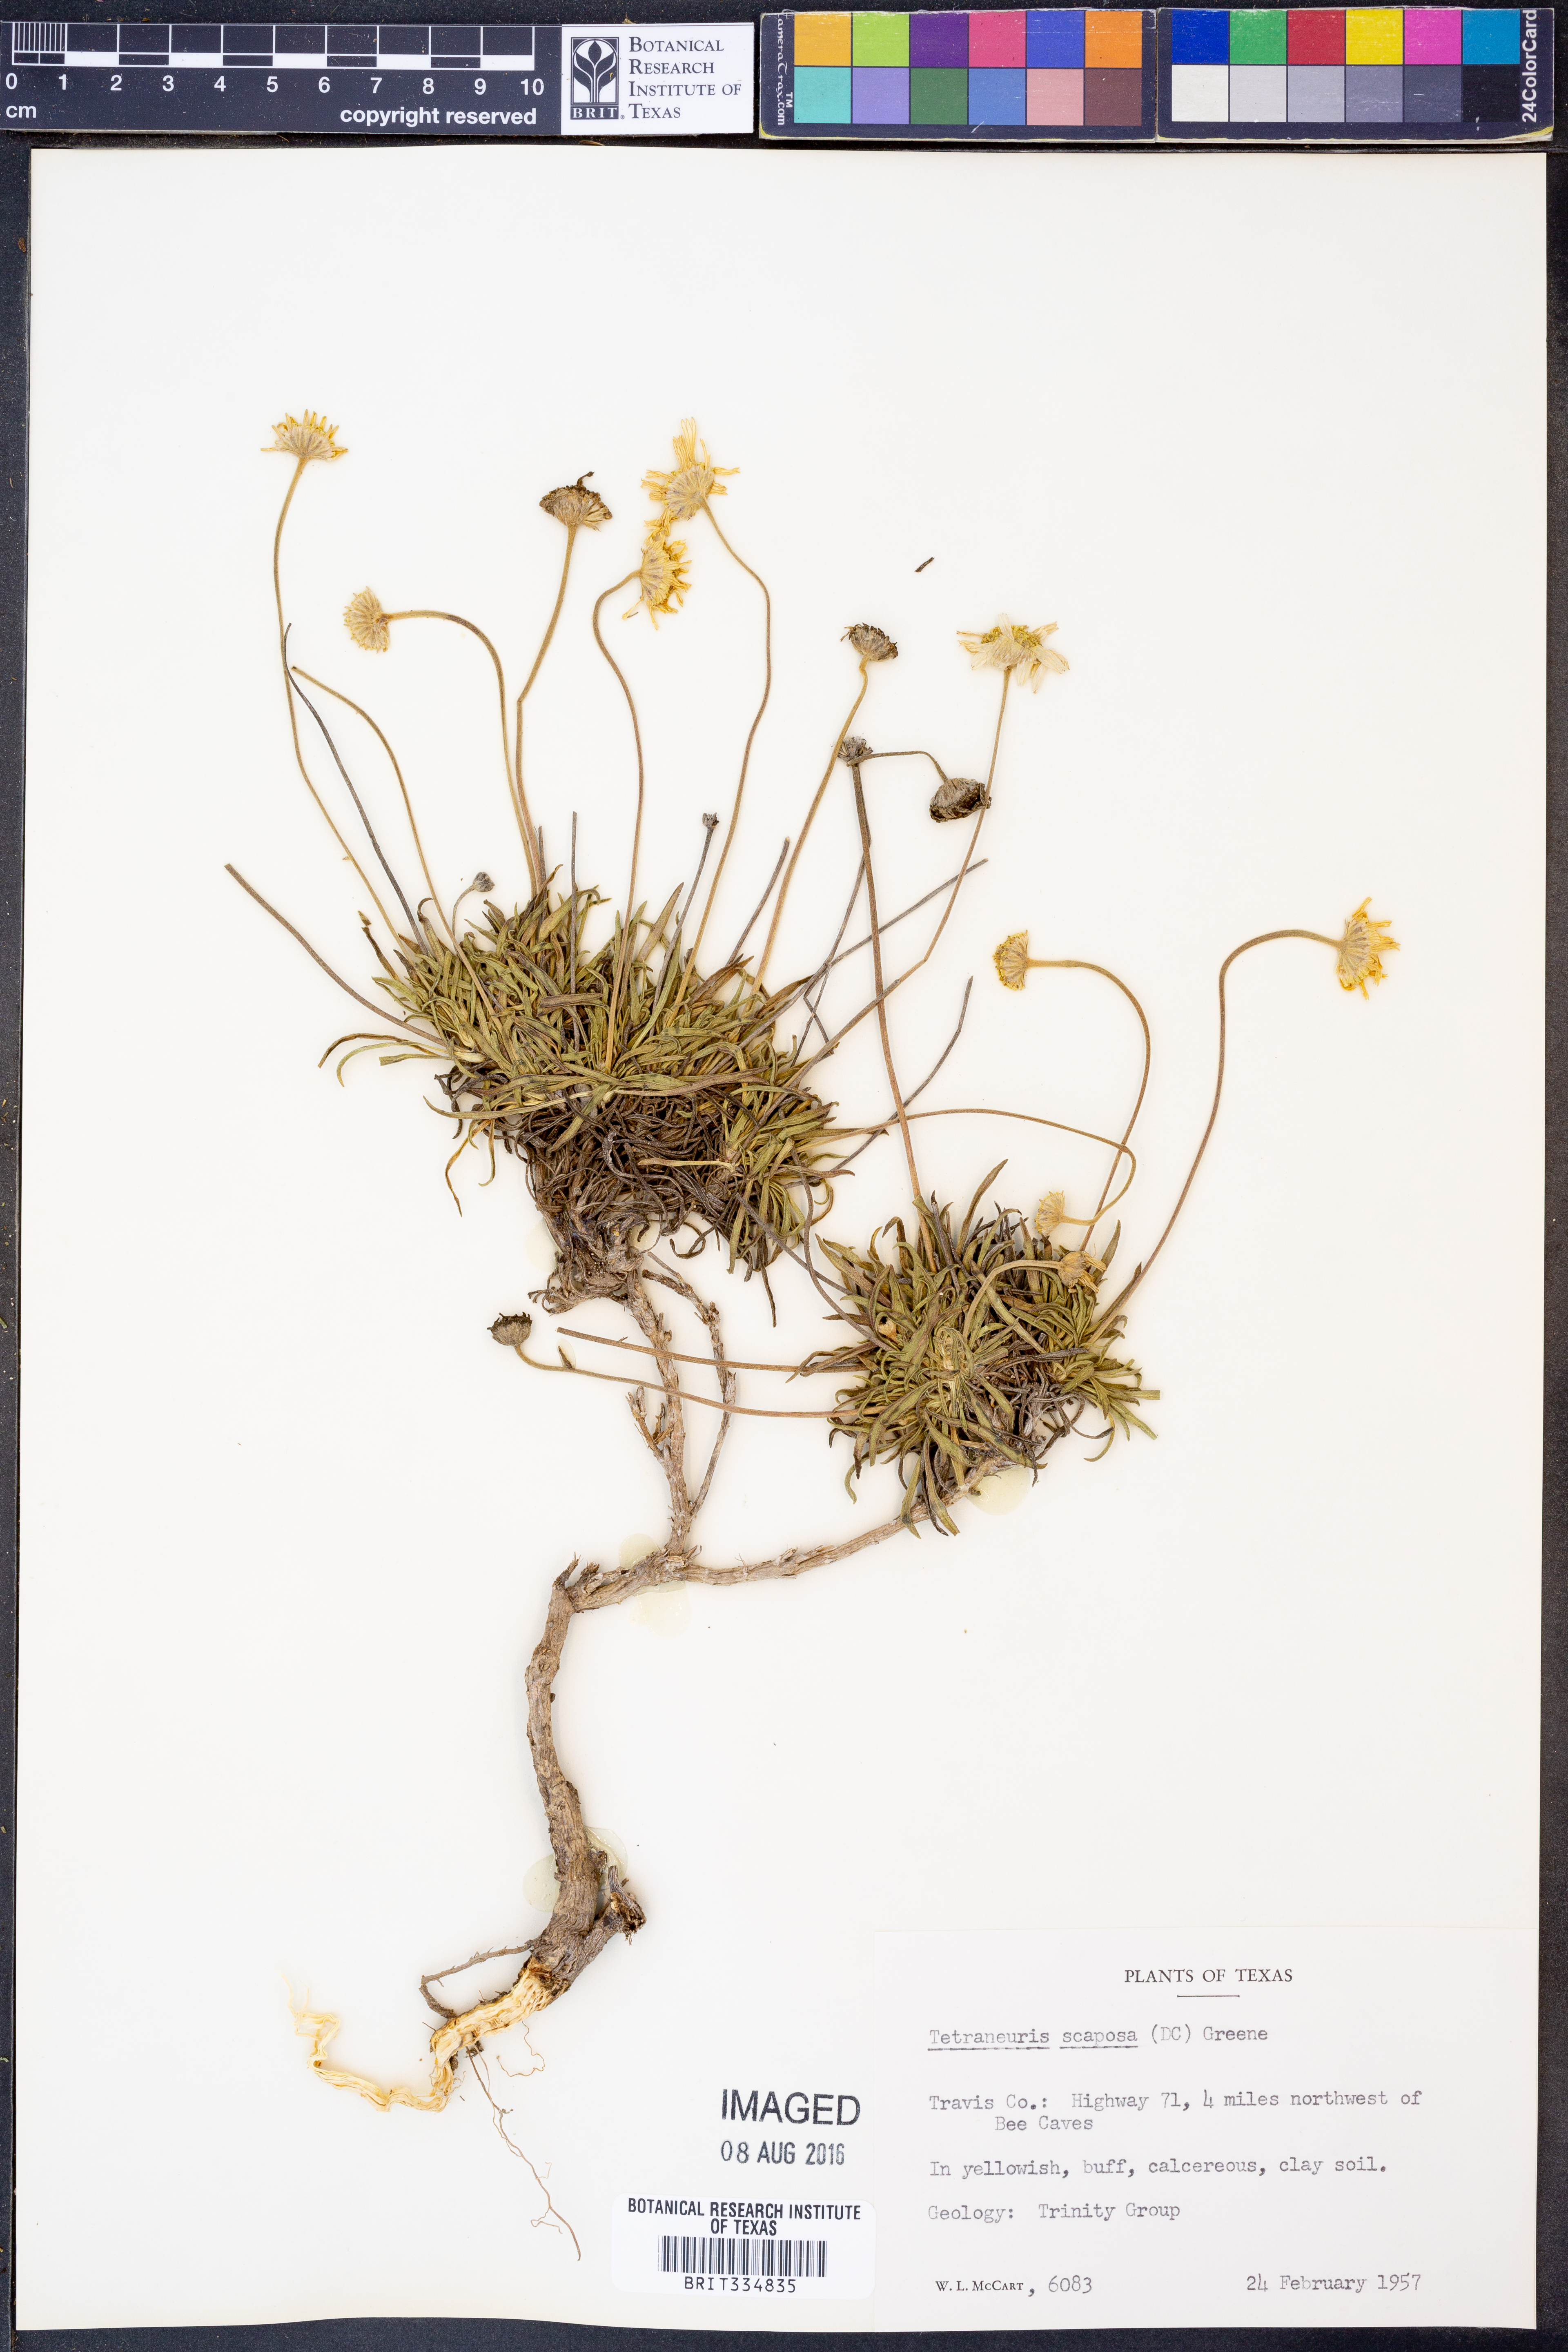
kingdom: Plantae
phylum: Tracheophyta
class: Magnoliopsida
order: Asterales
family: Asteraceae
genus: Tetraneuris
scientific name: Tetraneuris scaposa
